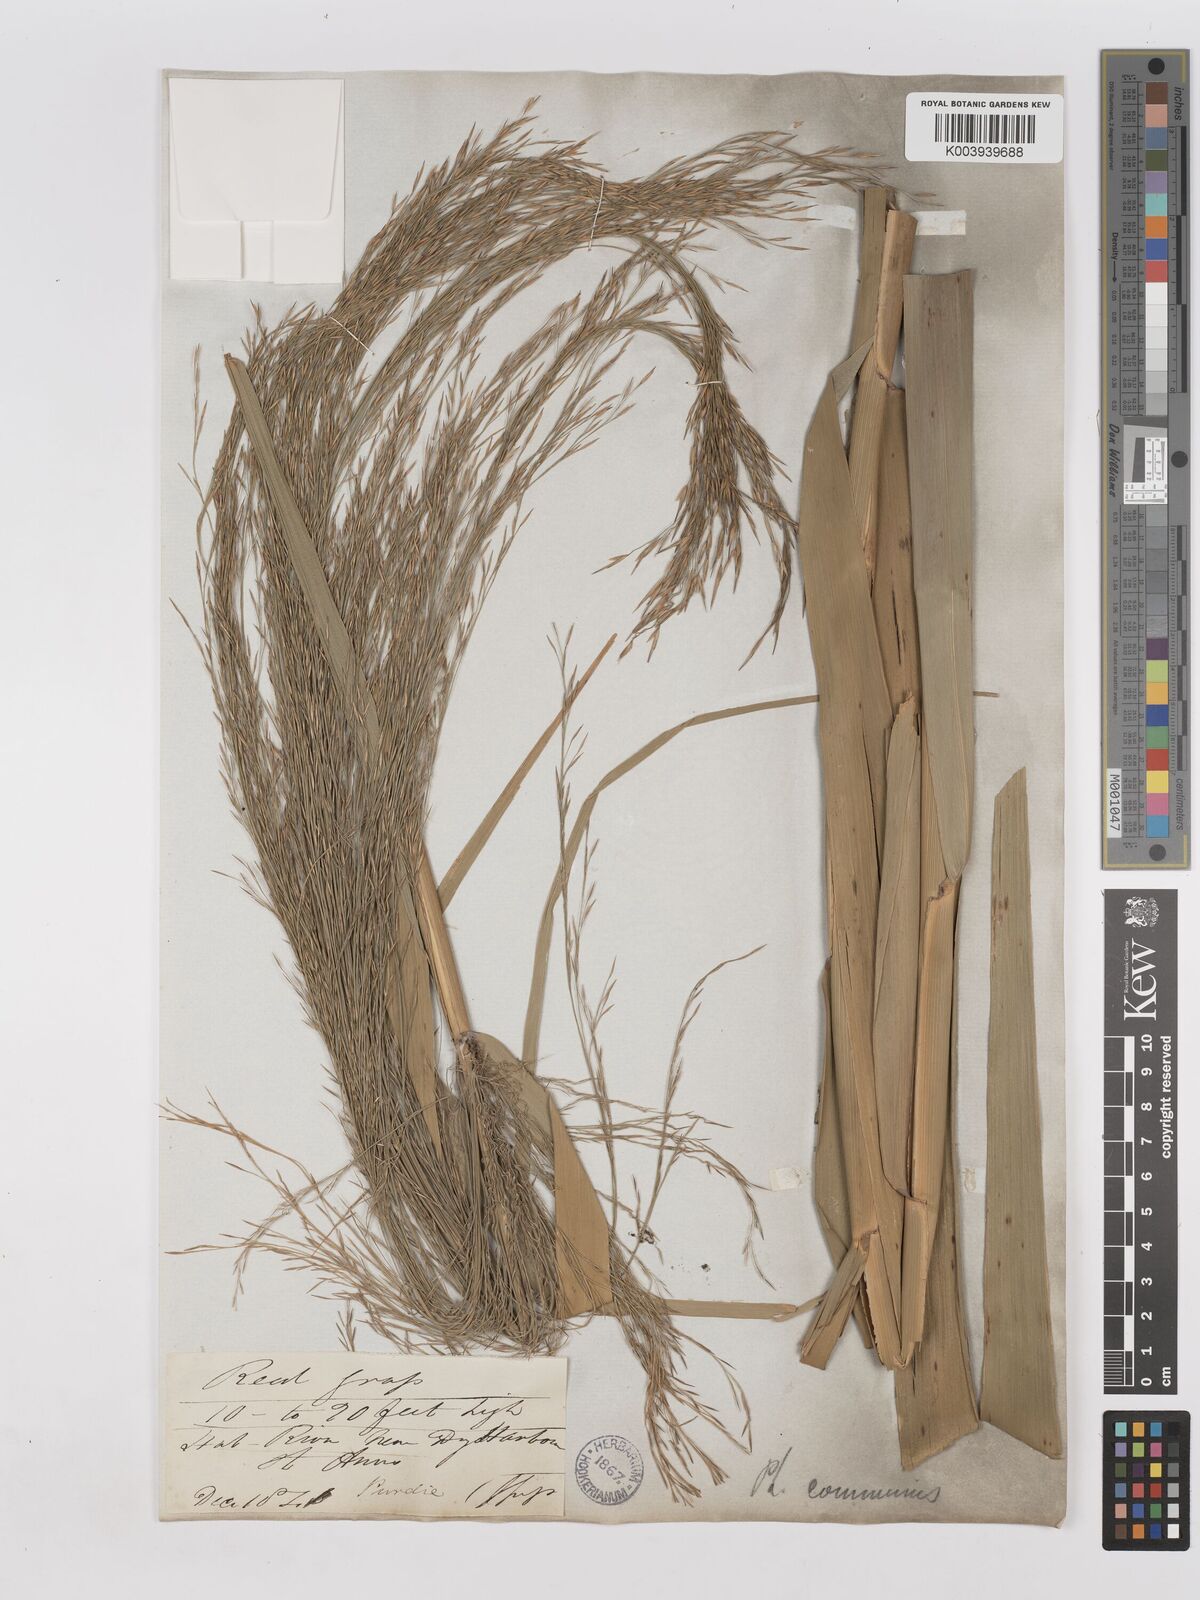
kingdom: Plantae
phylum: Tracheophyta
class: Liliopsida
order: Poales
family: Poaceae
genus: Phragmites
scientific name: Phragmites australis
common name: Common reed
